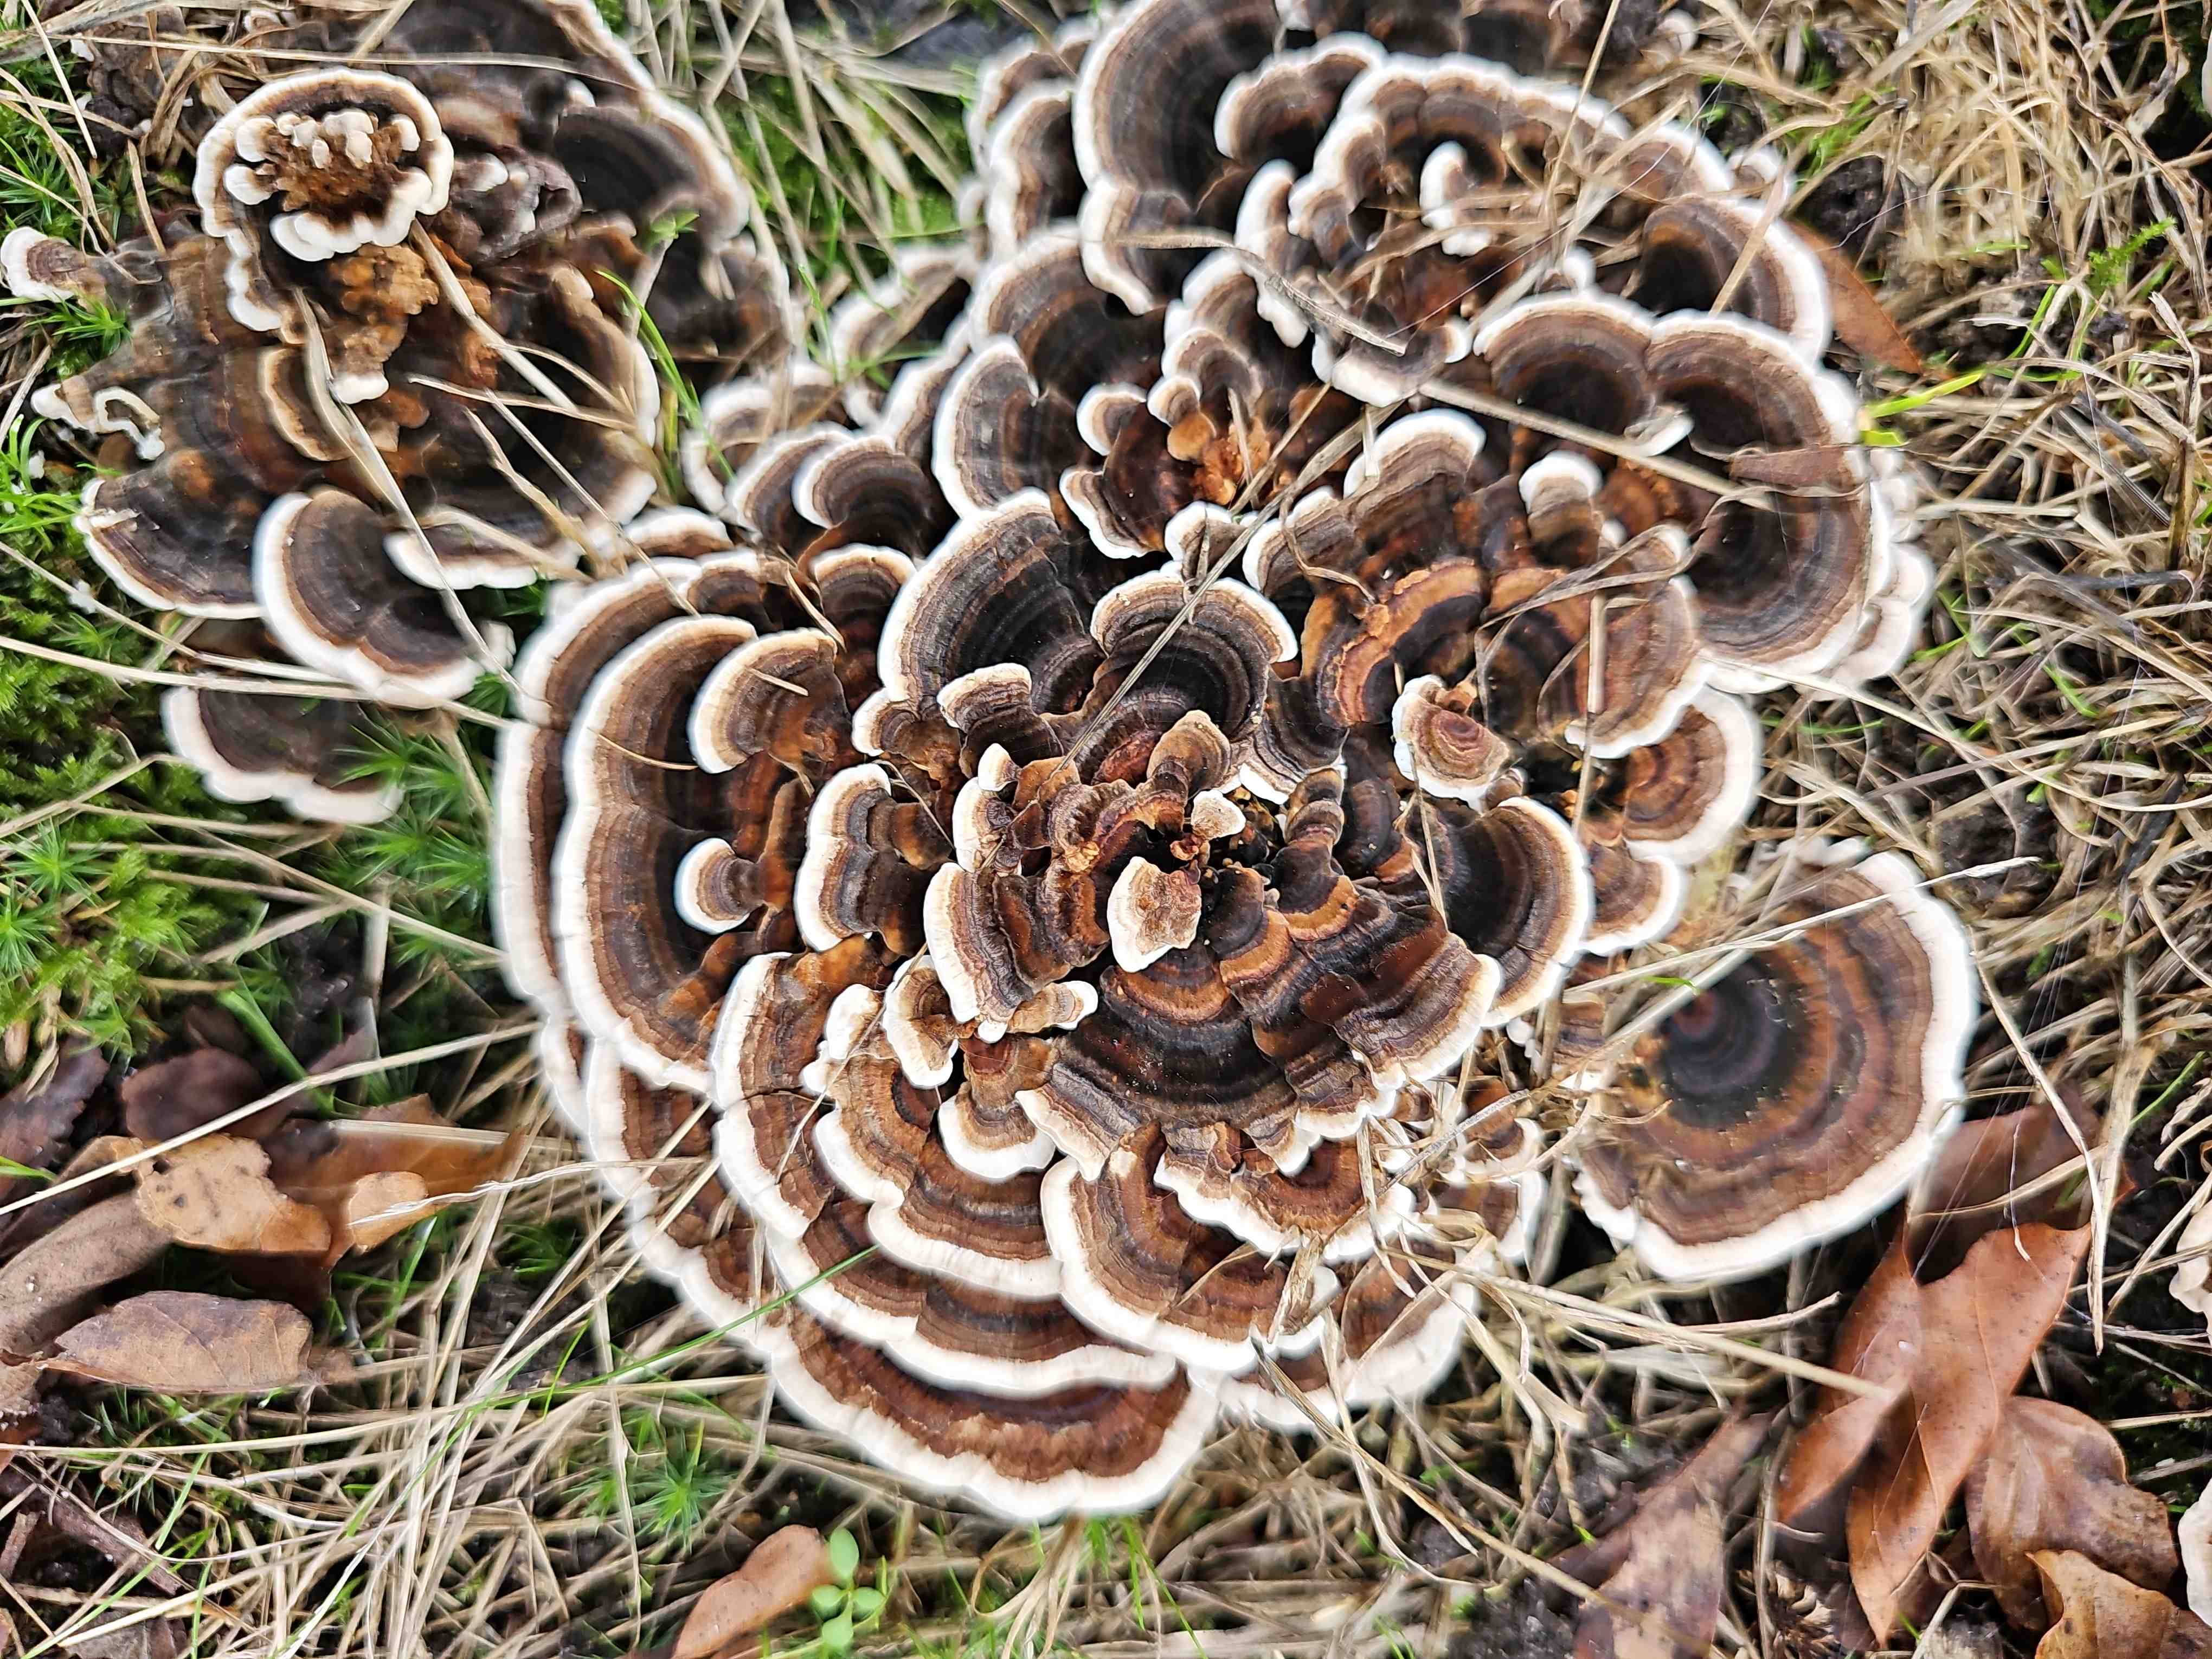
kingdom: Fungi
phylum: Basidiomycota
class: Agaricomycetes
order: Polyporales
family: Polyporaceae
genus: Trametes
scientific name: Trametes versicolor
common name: broget læderporesvamp
